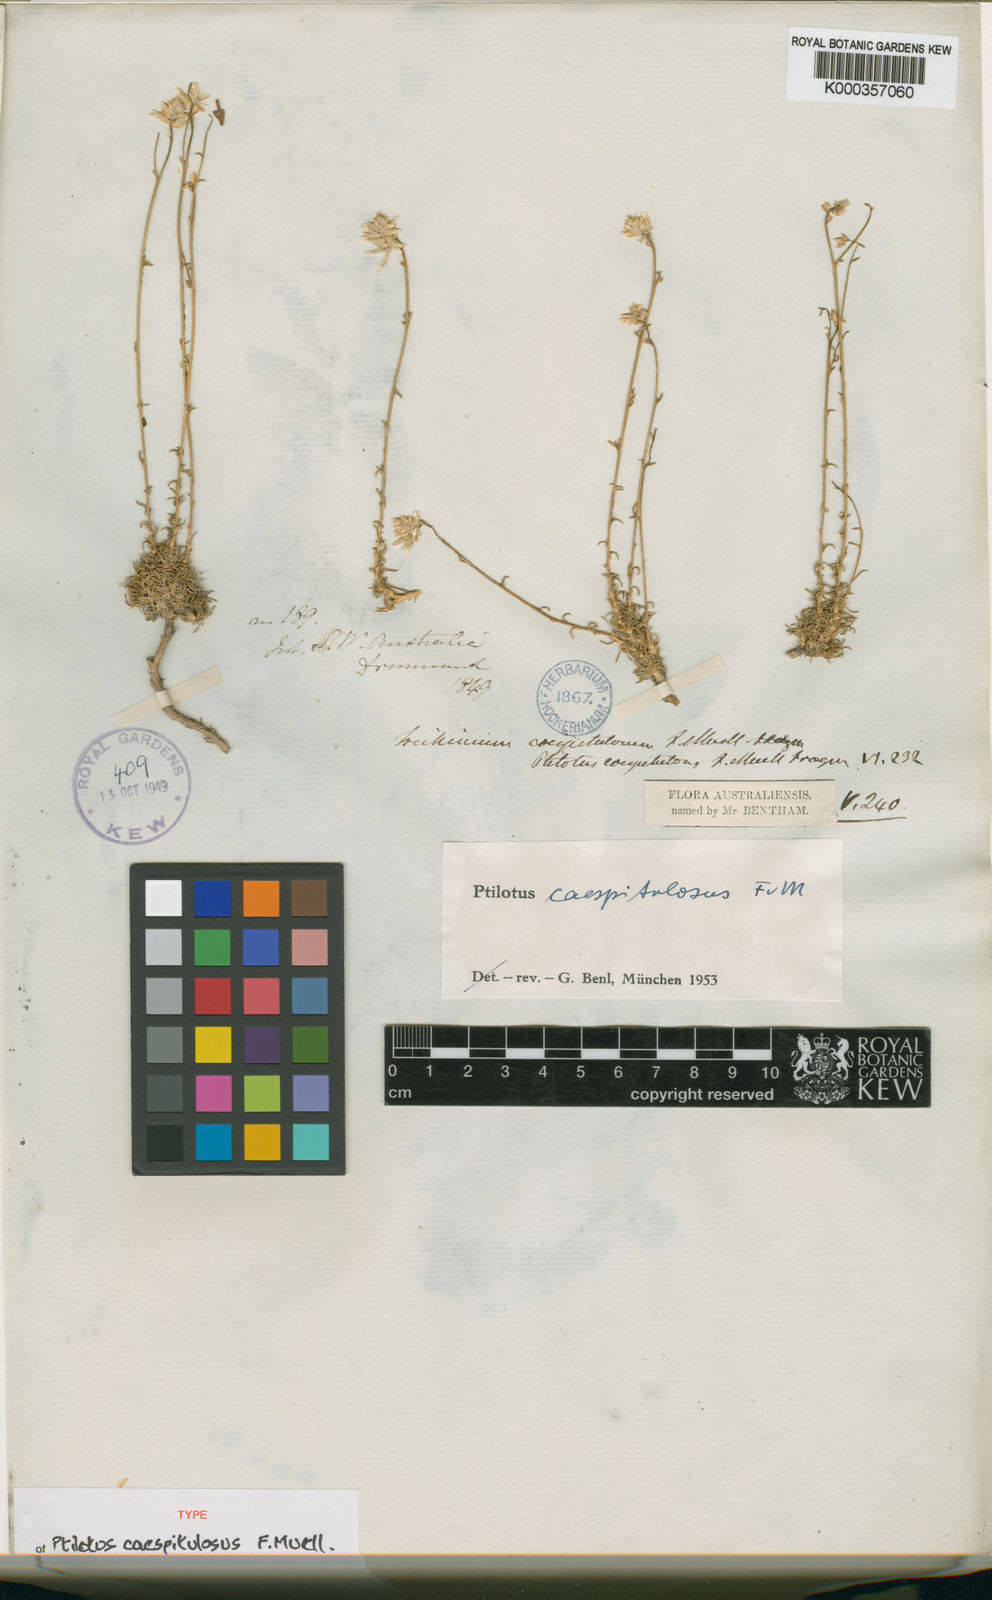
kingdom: Plantae
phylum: Tracheophyta
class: Magnoliopsida
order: Caryophyllales
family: Amaranthaceae
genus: Ptilotus
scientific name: Ptilotus caespitulosus
